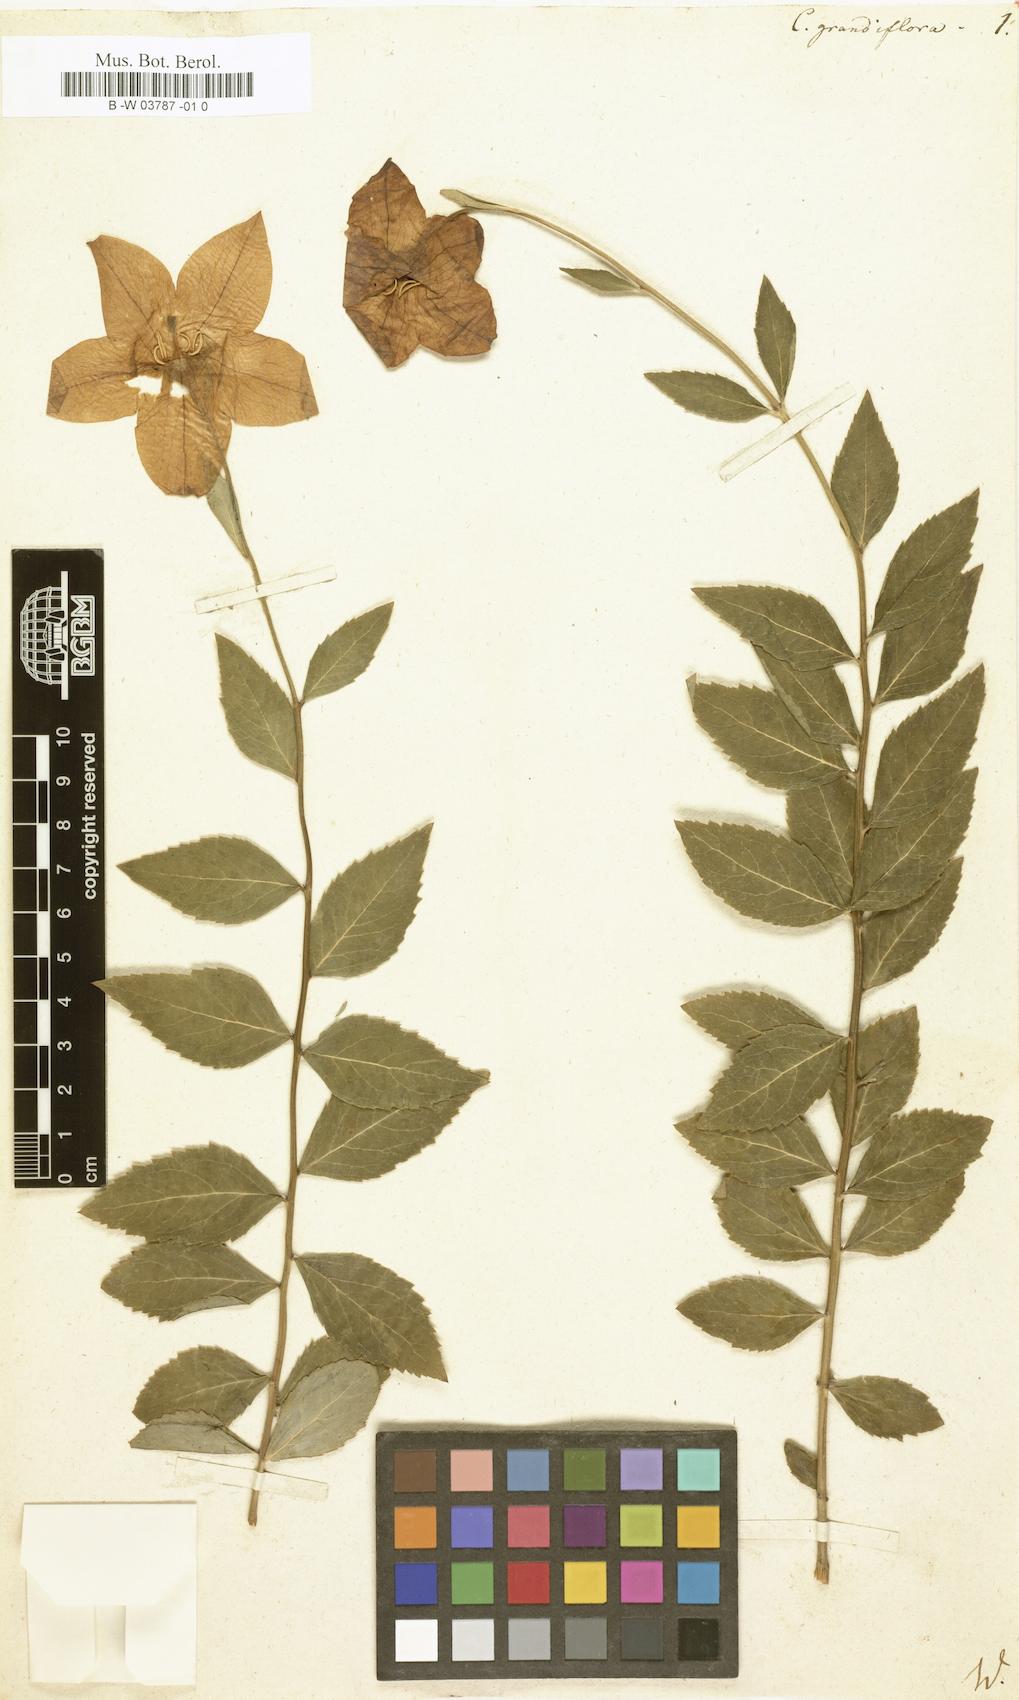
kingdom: Plantae
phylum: Tracheophyta
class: Magnoliopsida
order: Asterales
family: Campanulaceae
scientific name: Campanulaceae
